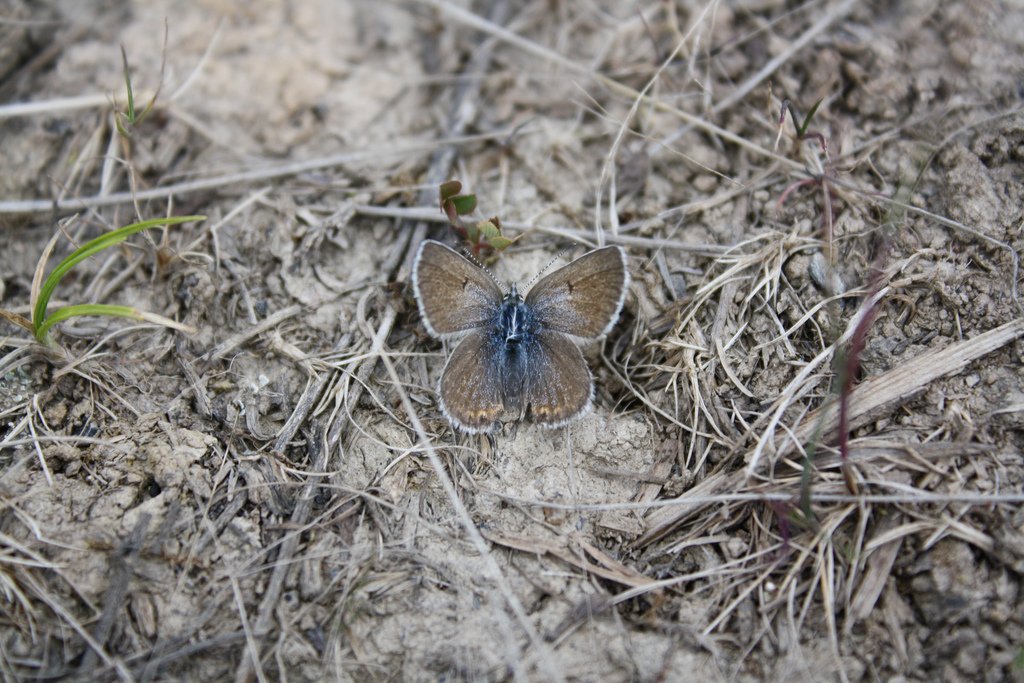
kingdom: Animalia
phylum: Arthropoda
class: Insecta
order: Lepidoptera
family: Lycaenidae
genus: Plebejus
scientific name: Plebejus saepiolus
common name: Greenish Blue
